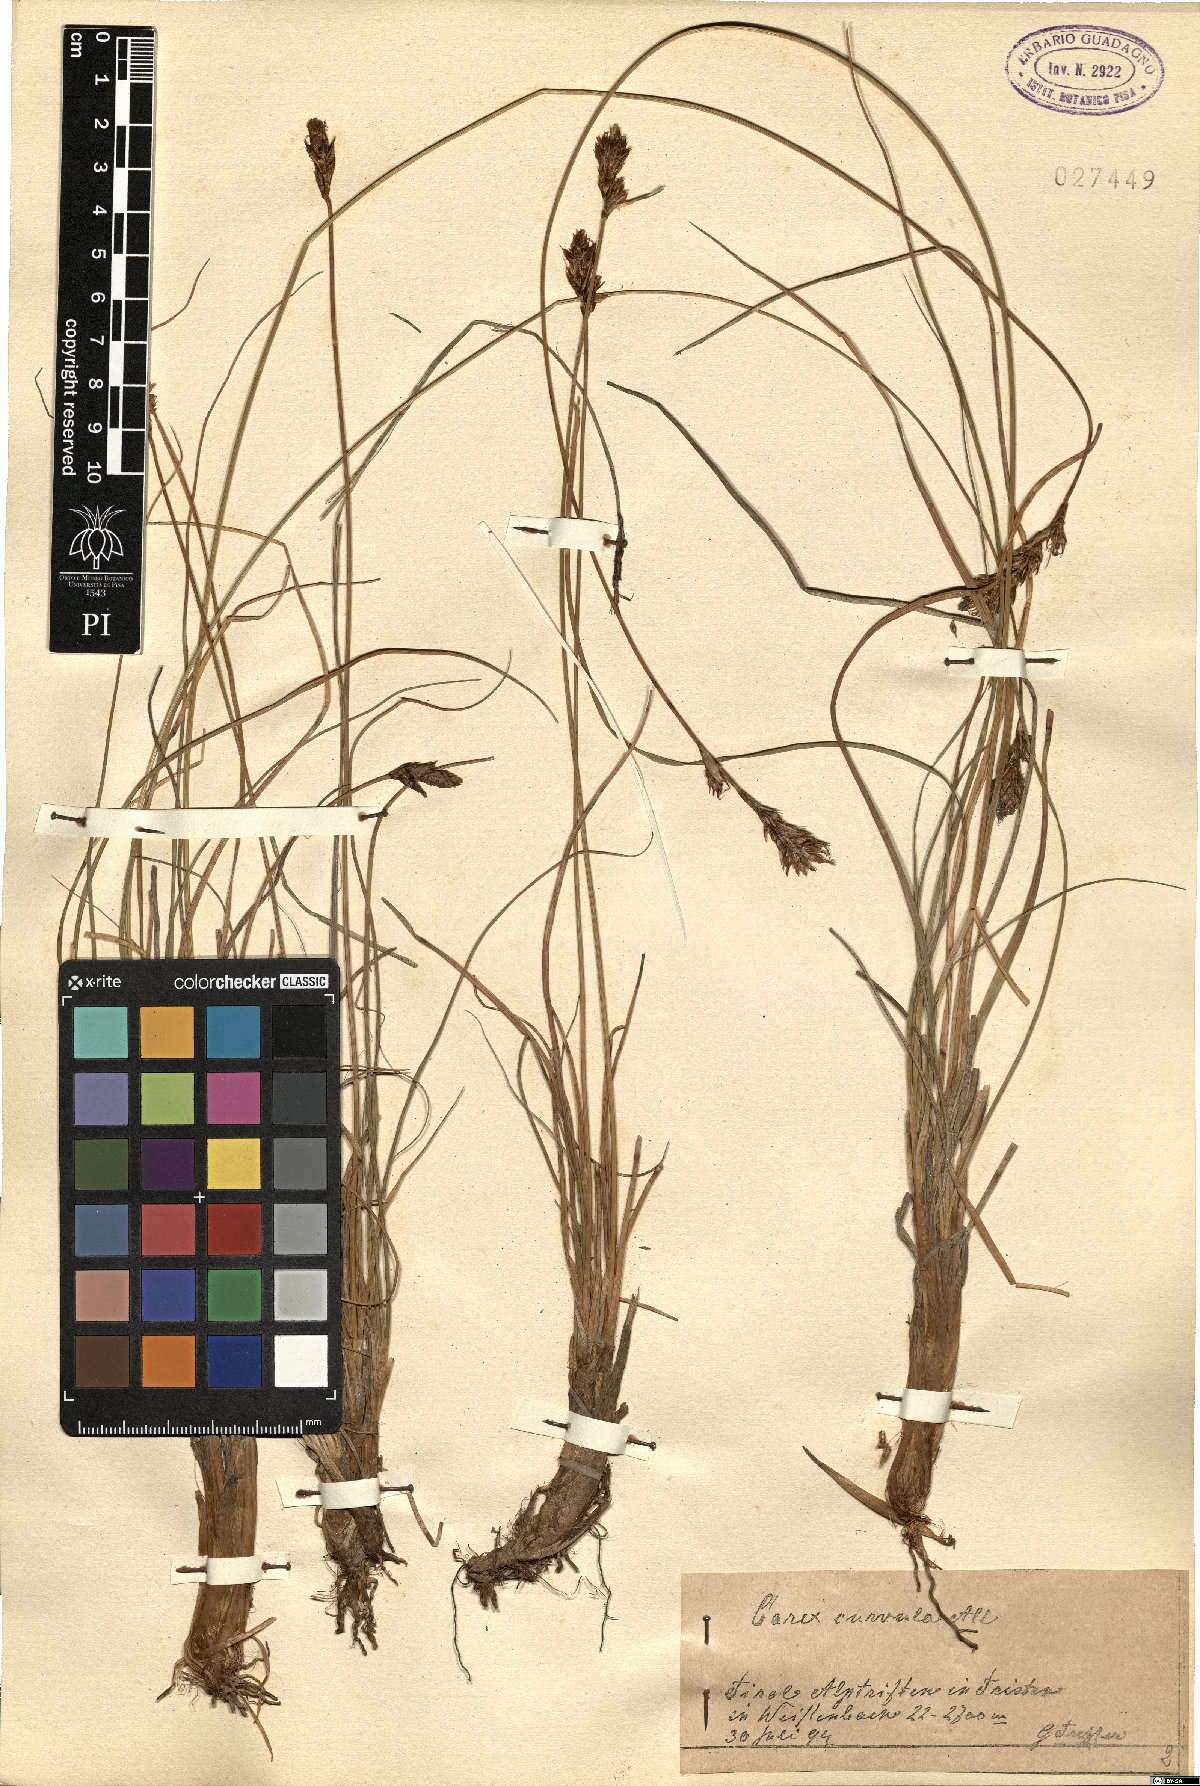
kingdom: Plantae
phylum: Tracheophyta
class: Liliopsida
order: Poales
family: Cyperaceae
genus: Carex
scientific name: Carex curvula
